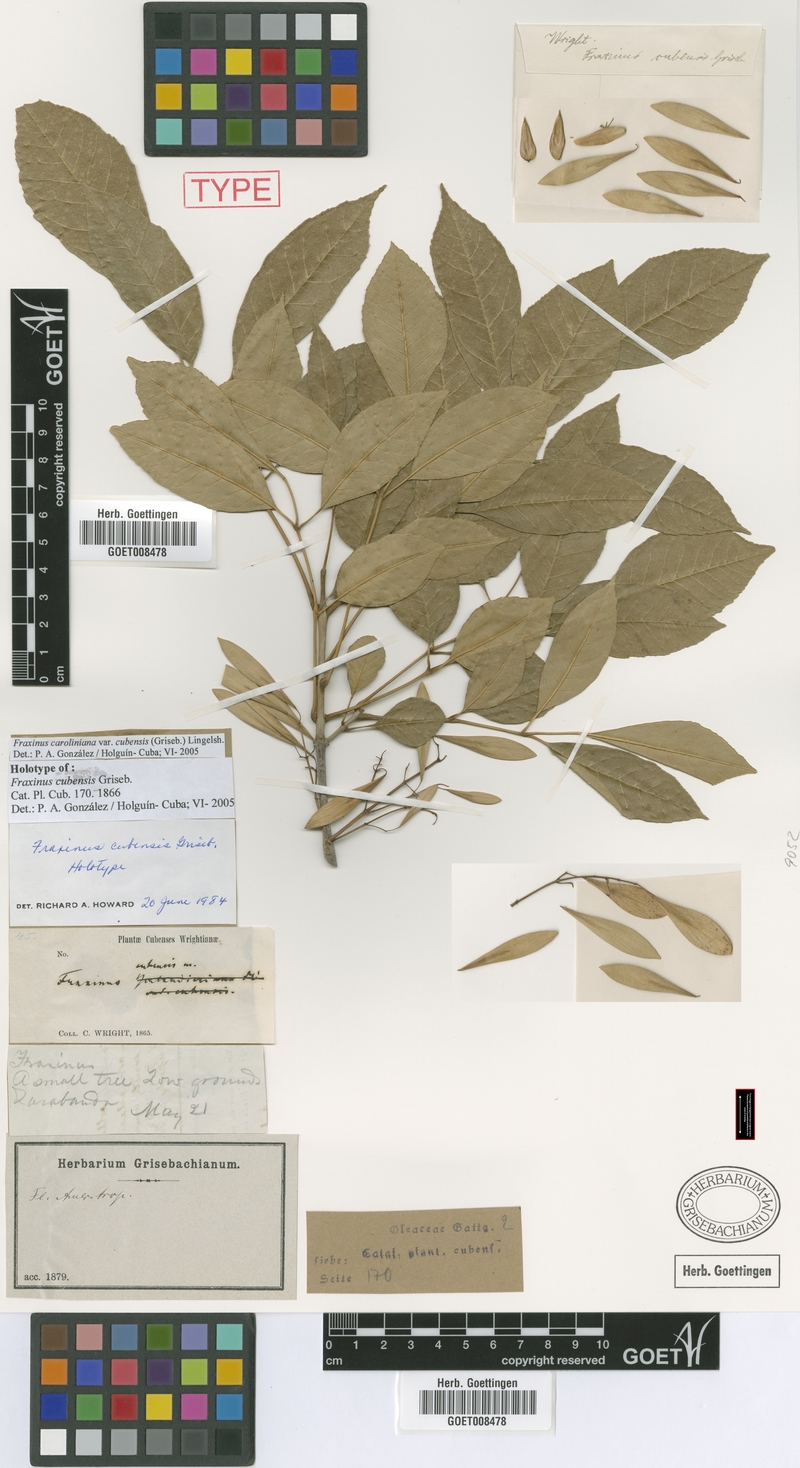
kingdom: Plantae
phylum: Tracheophyta
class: Magnoliopsida
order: Lamiales
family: Oleaceae
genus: Fraxinus
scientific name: Fraxinus caroliniana
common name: Carolina ash
